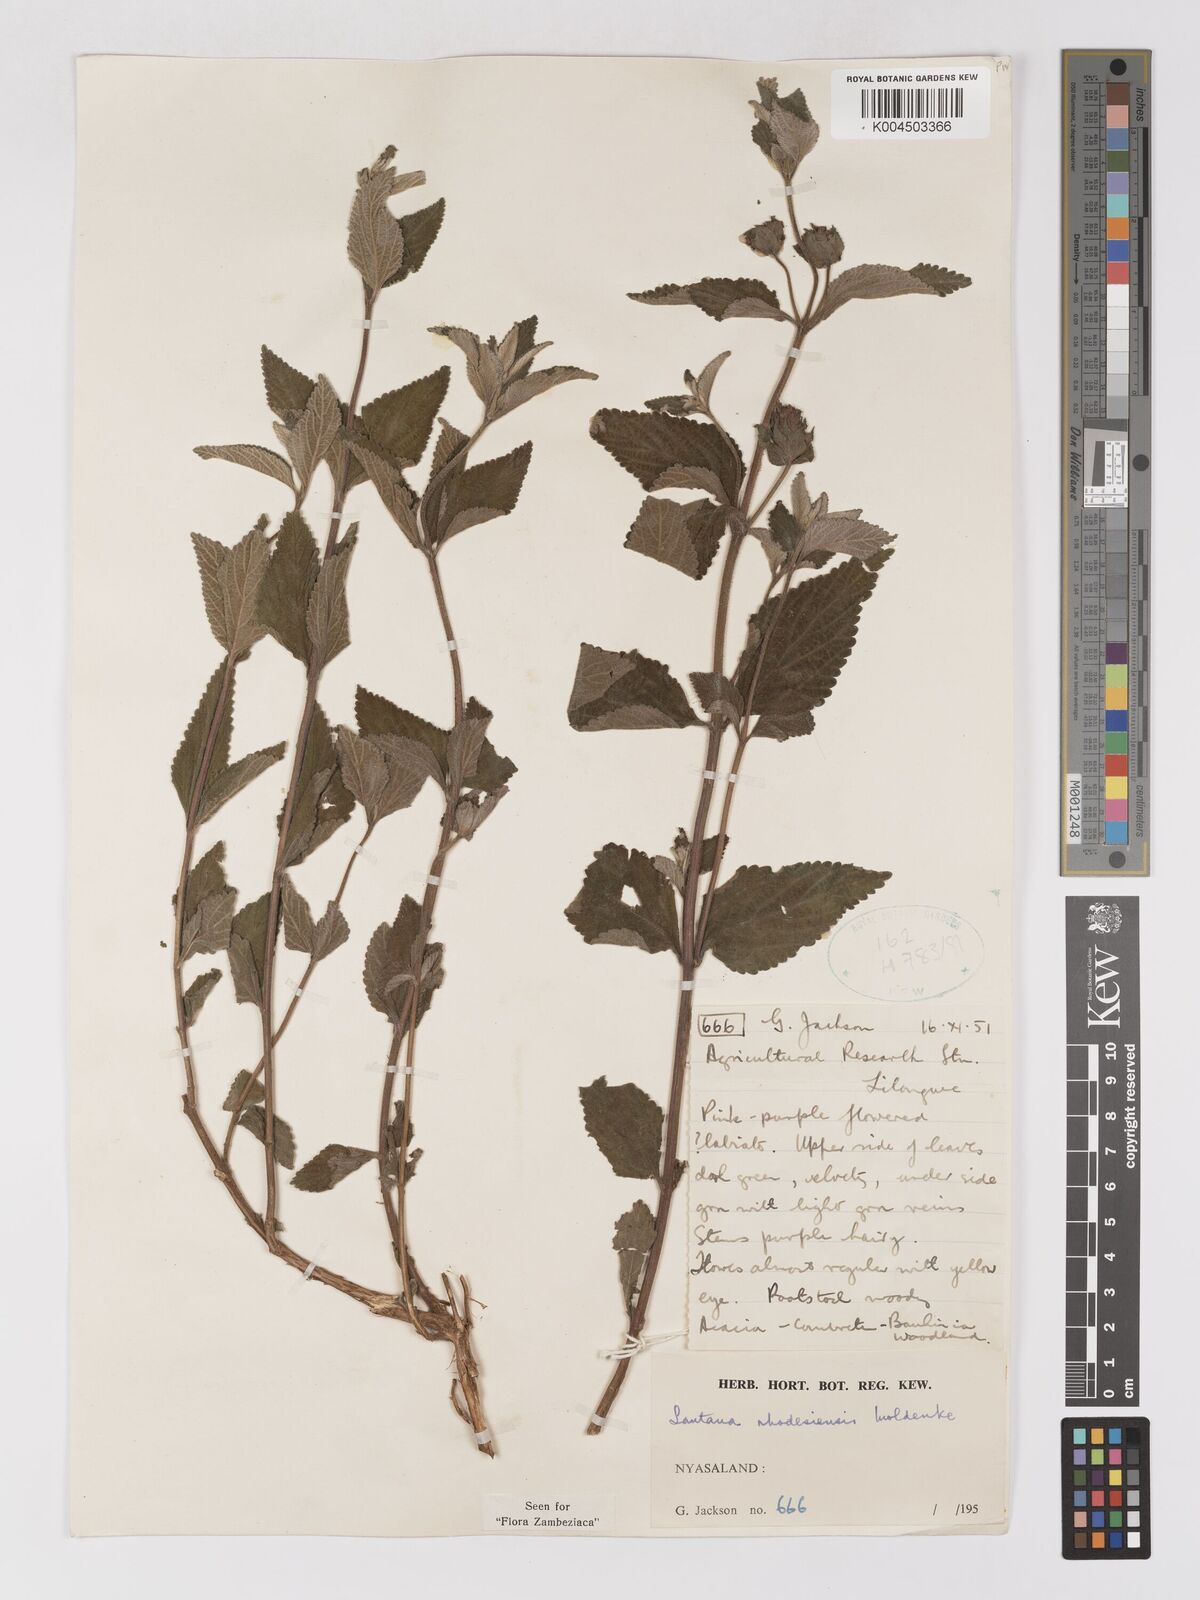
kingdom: Plantae
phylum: Tracheophyta
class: Magnoliopsida
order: Lamiales
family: Verbenaceae
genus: Lantana
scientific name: Lantana ukambensis
